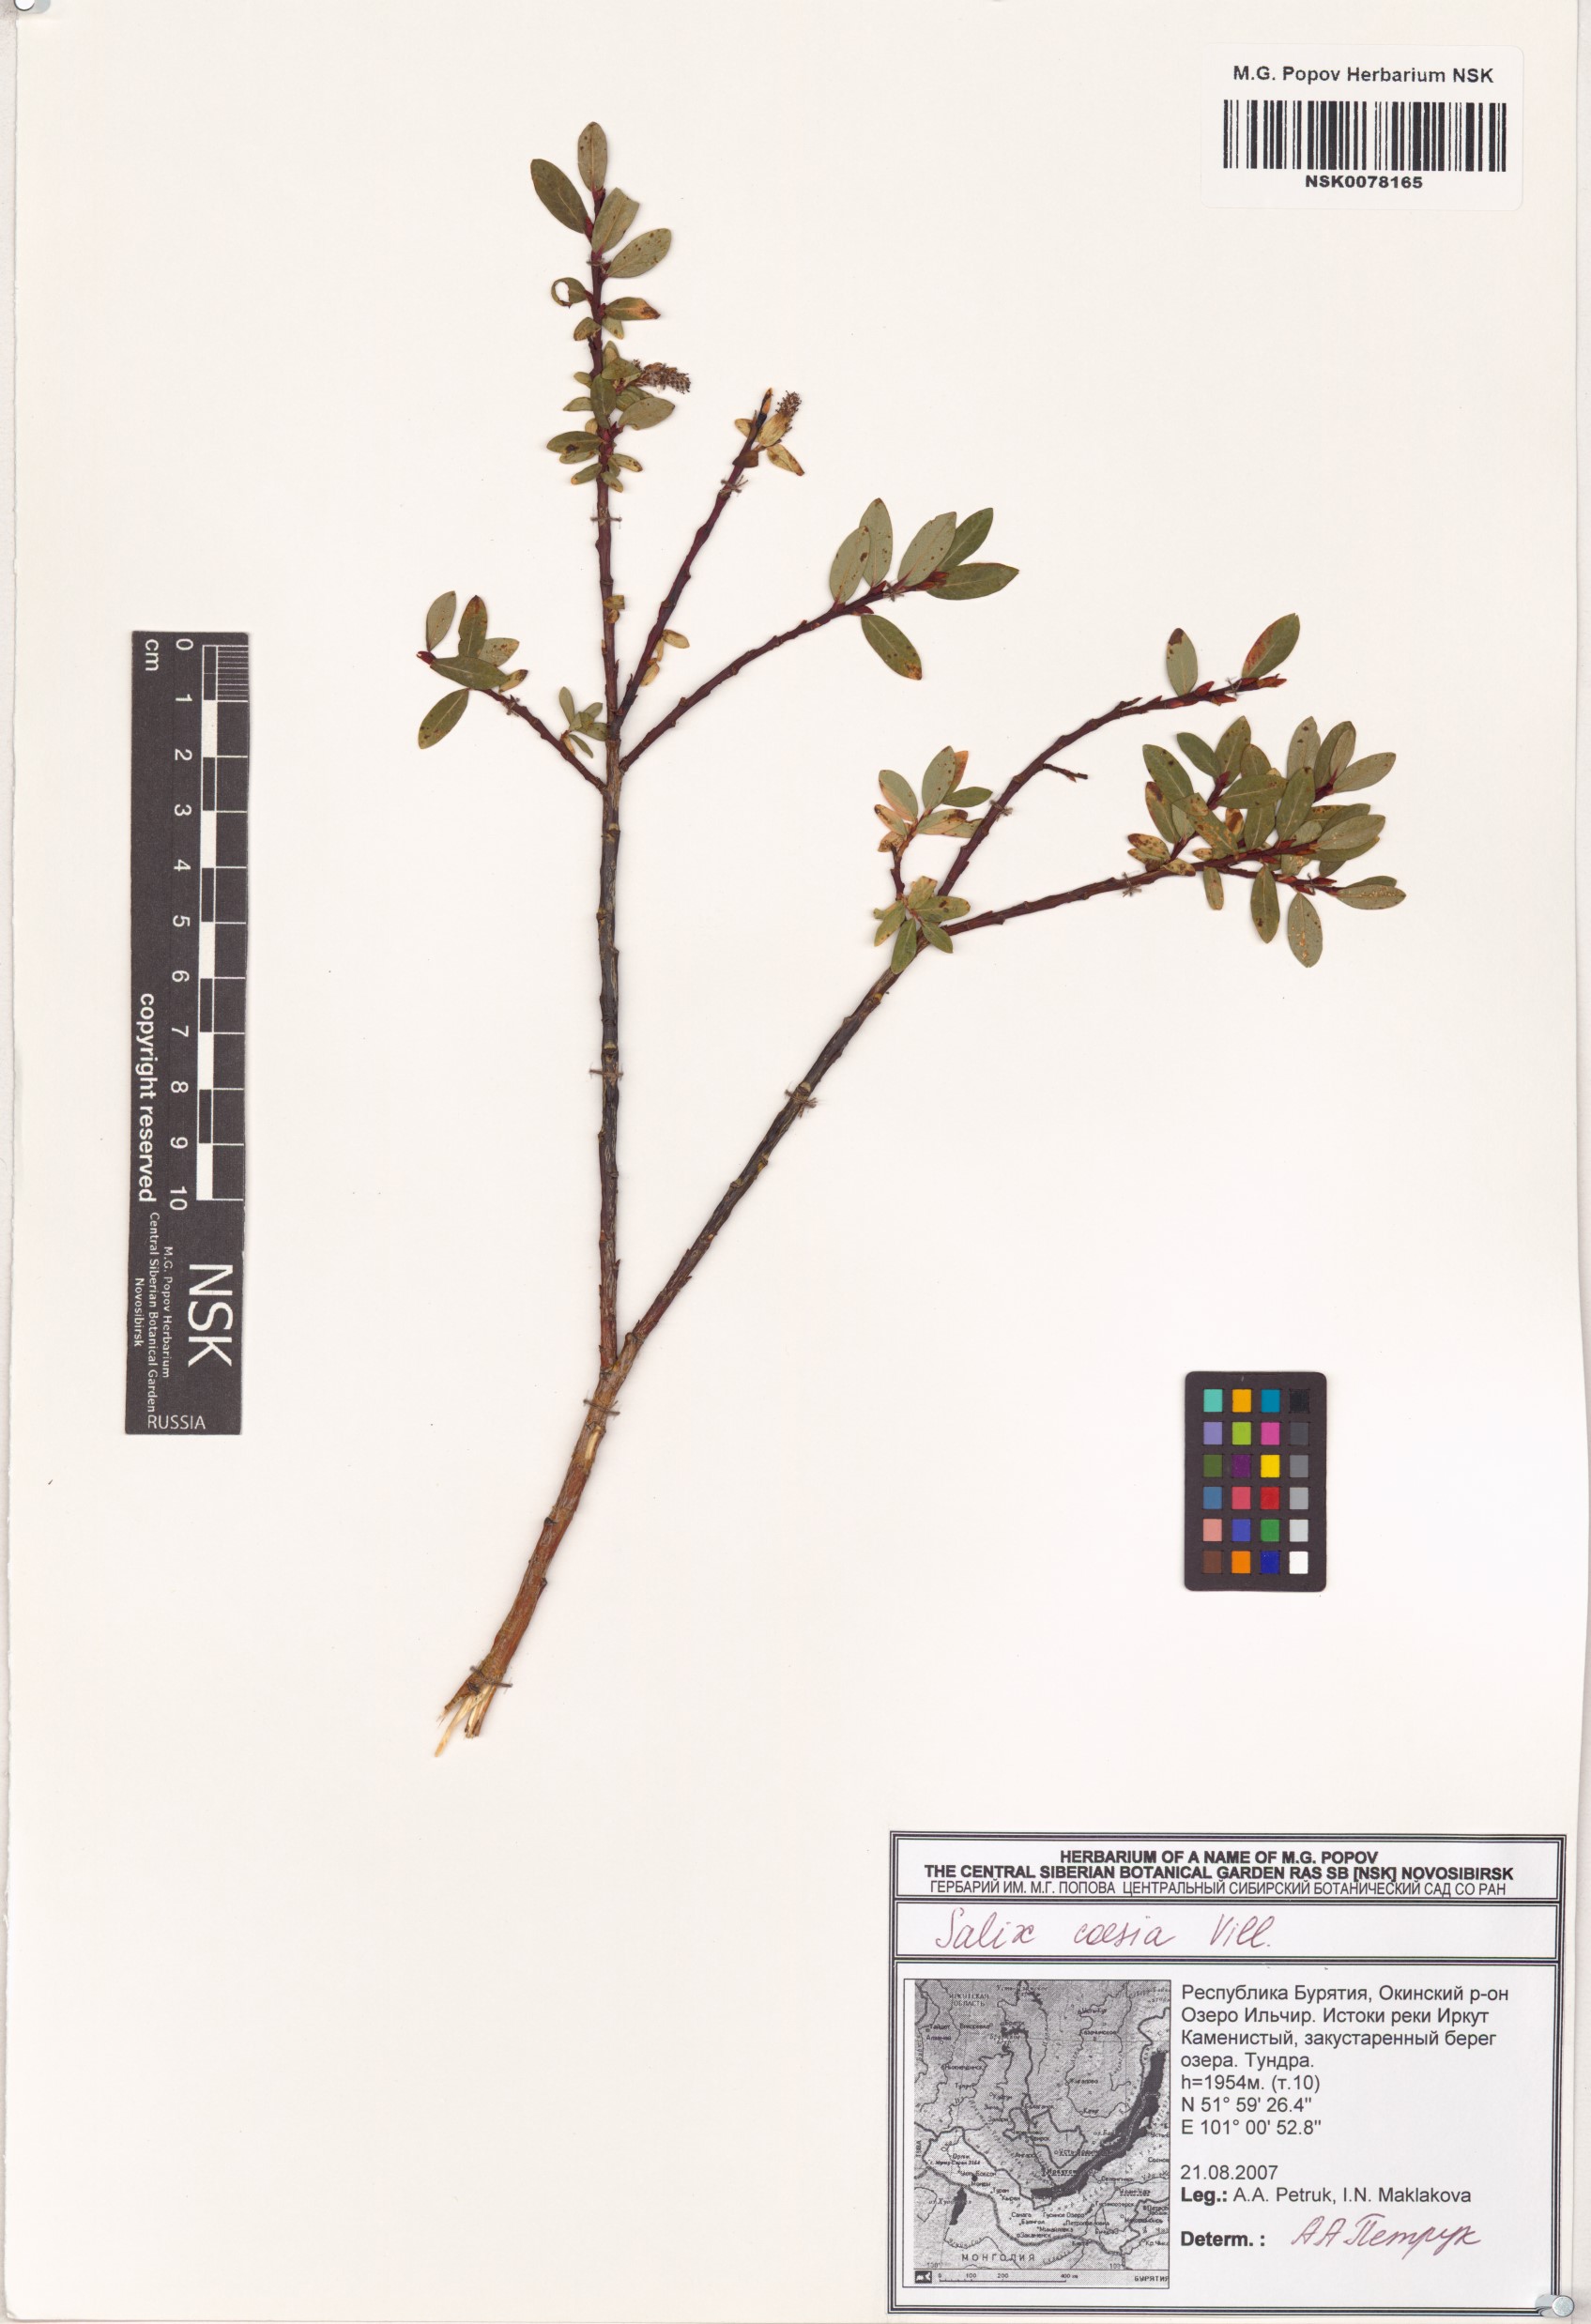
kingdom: Plantae
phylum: Tracheophyta
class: Magnoliopsida
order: Malpighiales
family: Salicaceae
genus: Salix
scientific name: Salix caesia
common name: Blue willow
